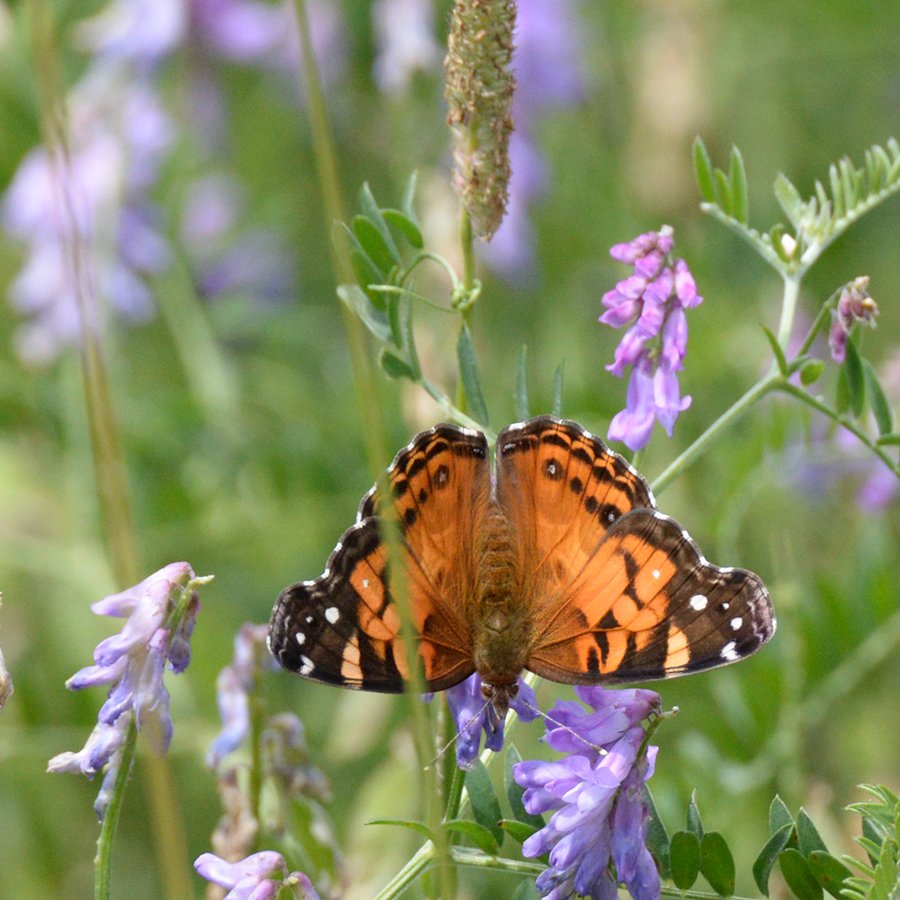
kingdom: Animalia
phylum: Arthropoda
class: Insecta
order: Lepidoptera
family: Nymphalidae
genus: Vanessa
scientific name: Vanessa virginiensis
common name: American Lady
